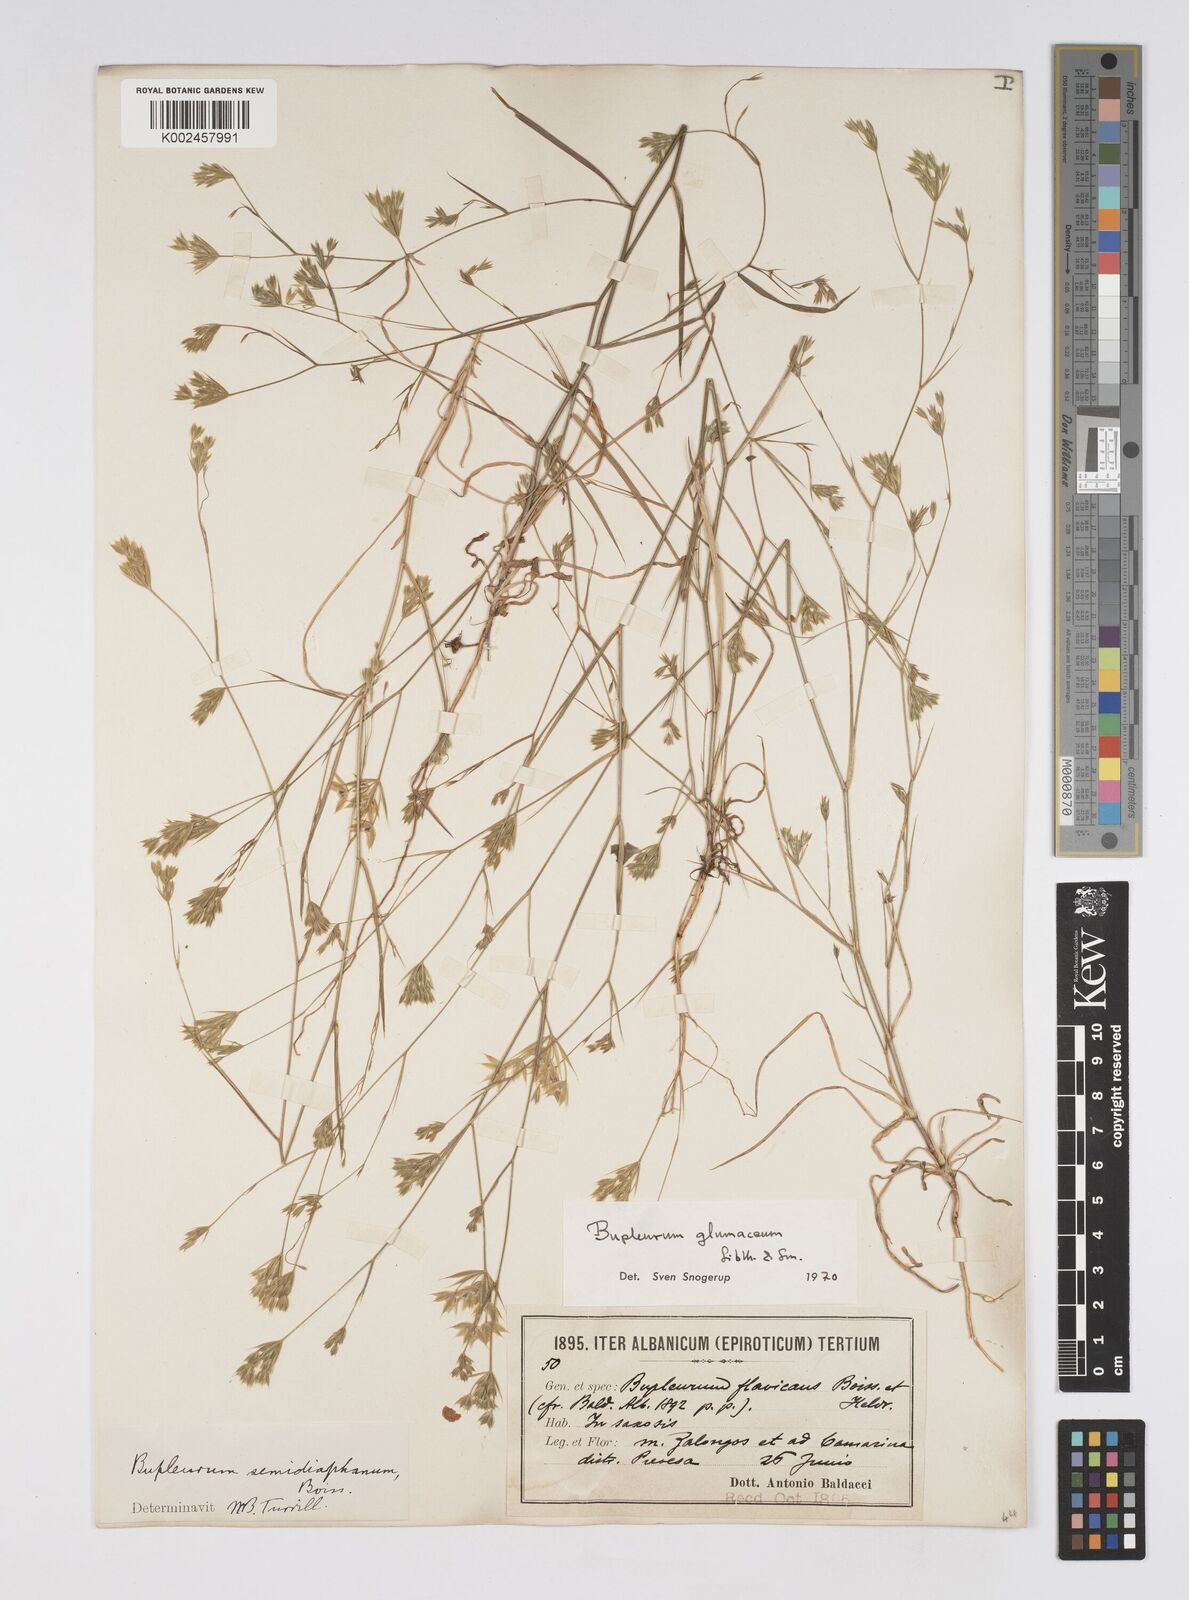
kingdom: Plantae
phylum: Tracheophyta
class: Magnoliopsida
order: Apiales
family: Apiaceae
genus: Bupleurum
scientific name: Bupleurum glumaceum
